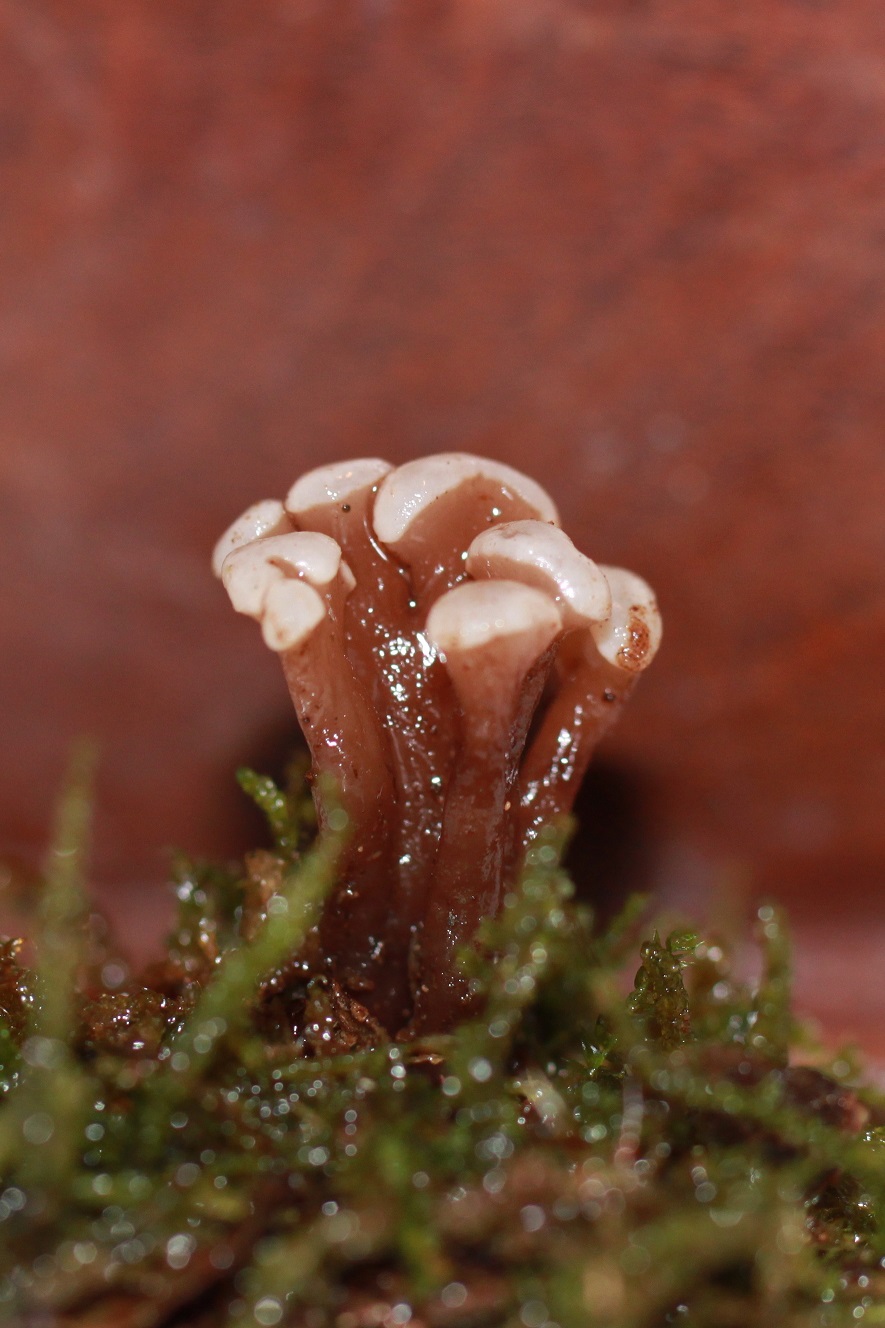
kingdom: Fungi
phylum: Ascomycota
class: Leotiomycetes
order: Helotiales
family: Gelatinodiscaceae
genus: Ascocoryne
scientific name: Ascocoryne albida
